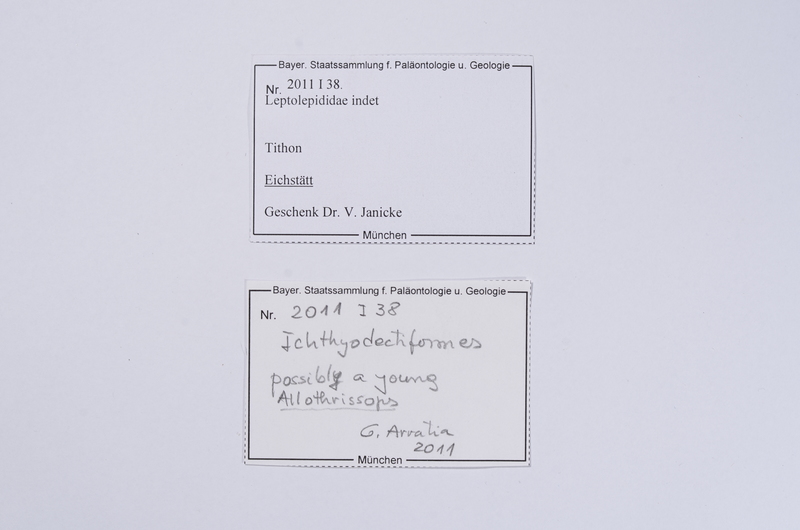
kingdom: Animalia
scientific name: Animalia
